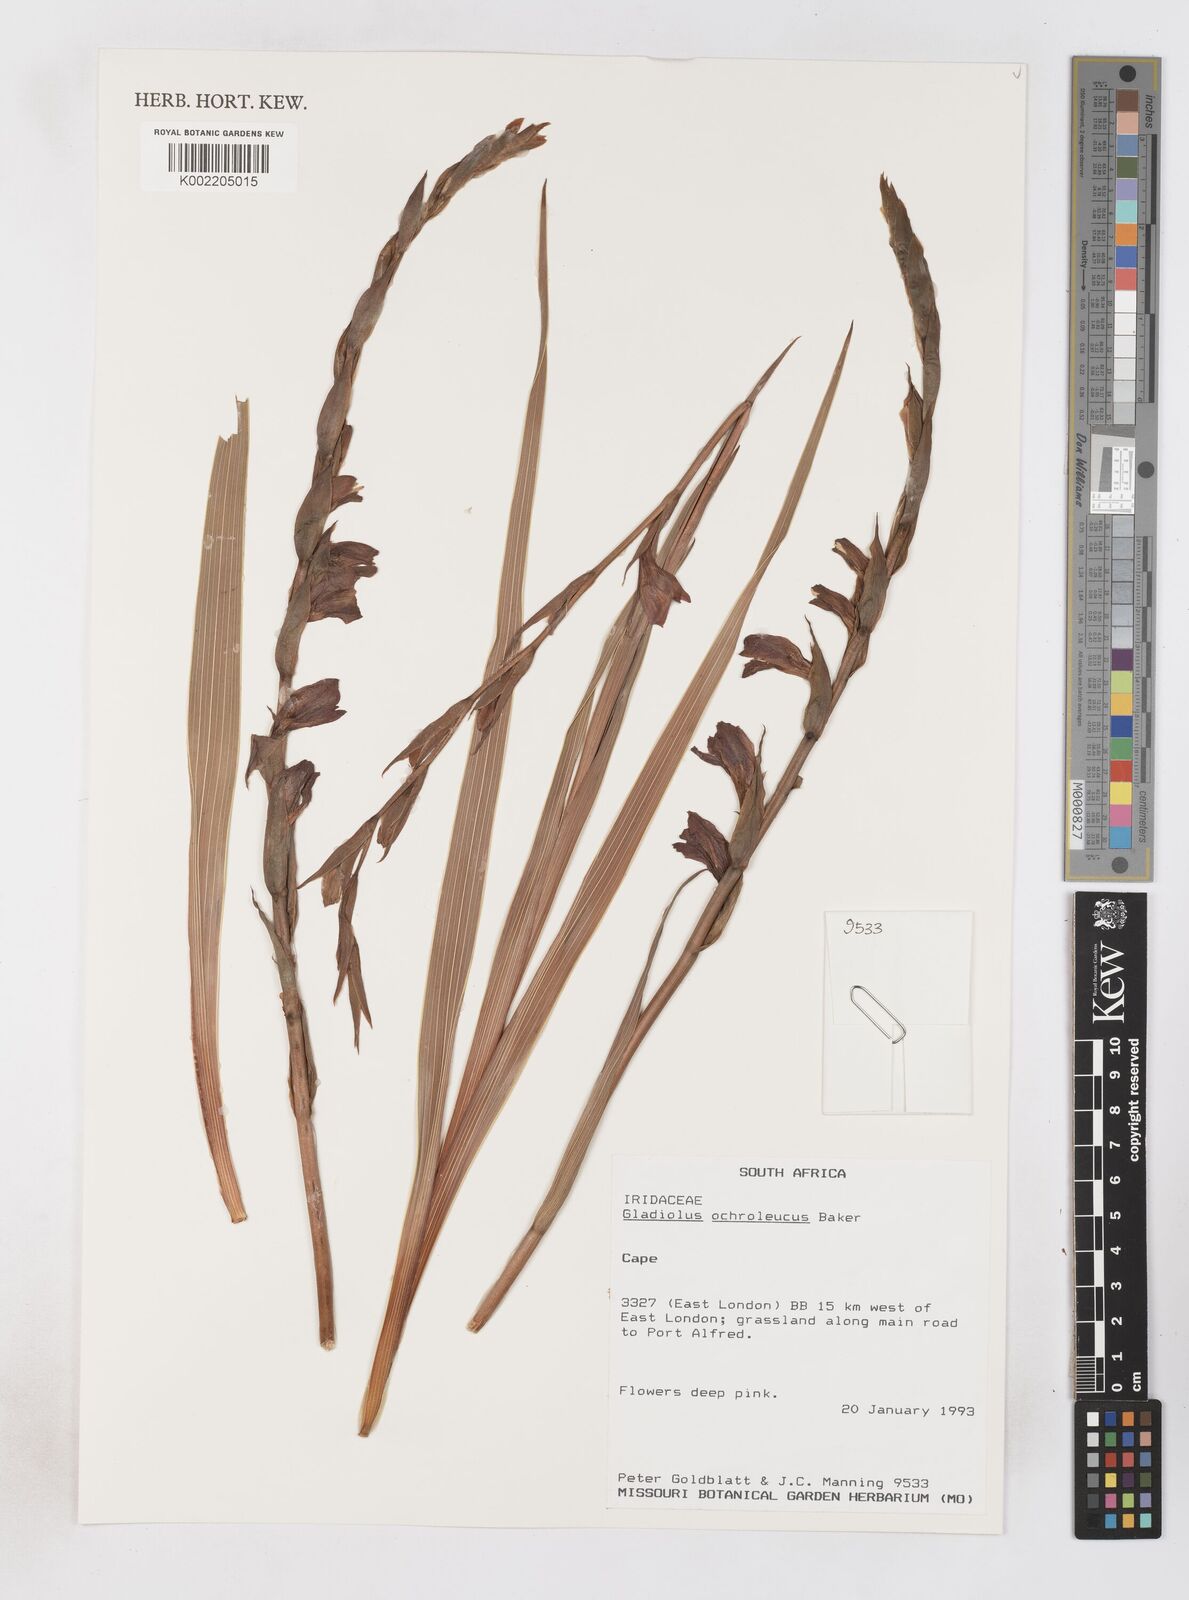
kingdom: Plantae
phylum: Tracheophyta
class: Liliopsida
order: Asparagales
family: Iridaceae
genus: Gladiolus
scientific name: Gladiolus ochroleucus
